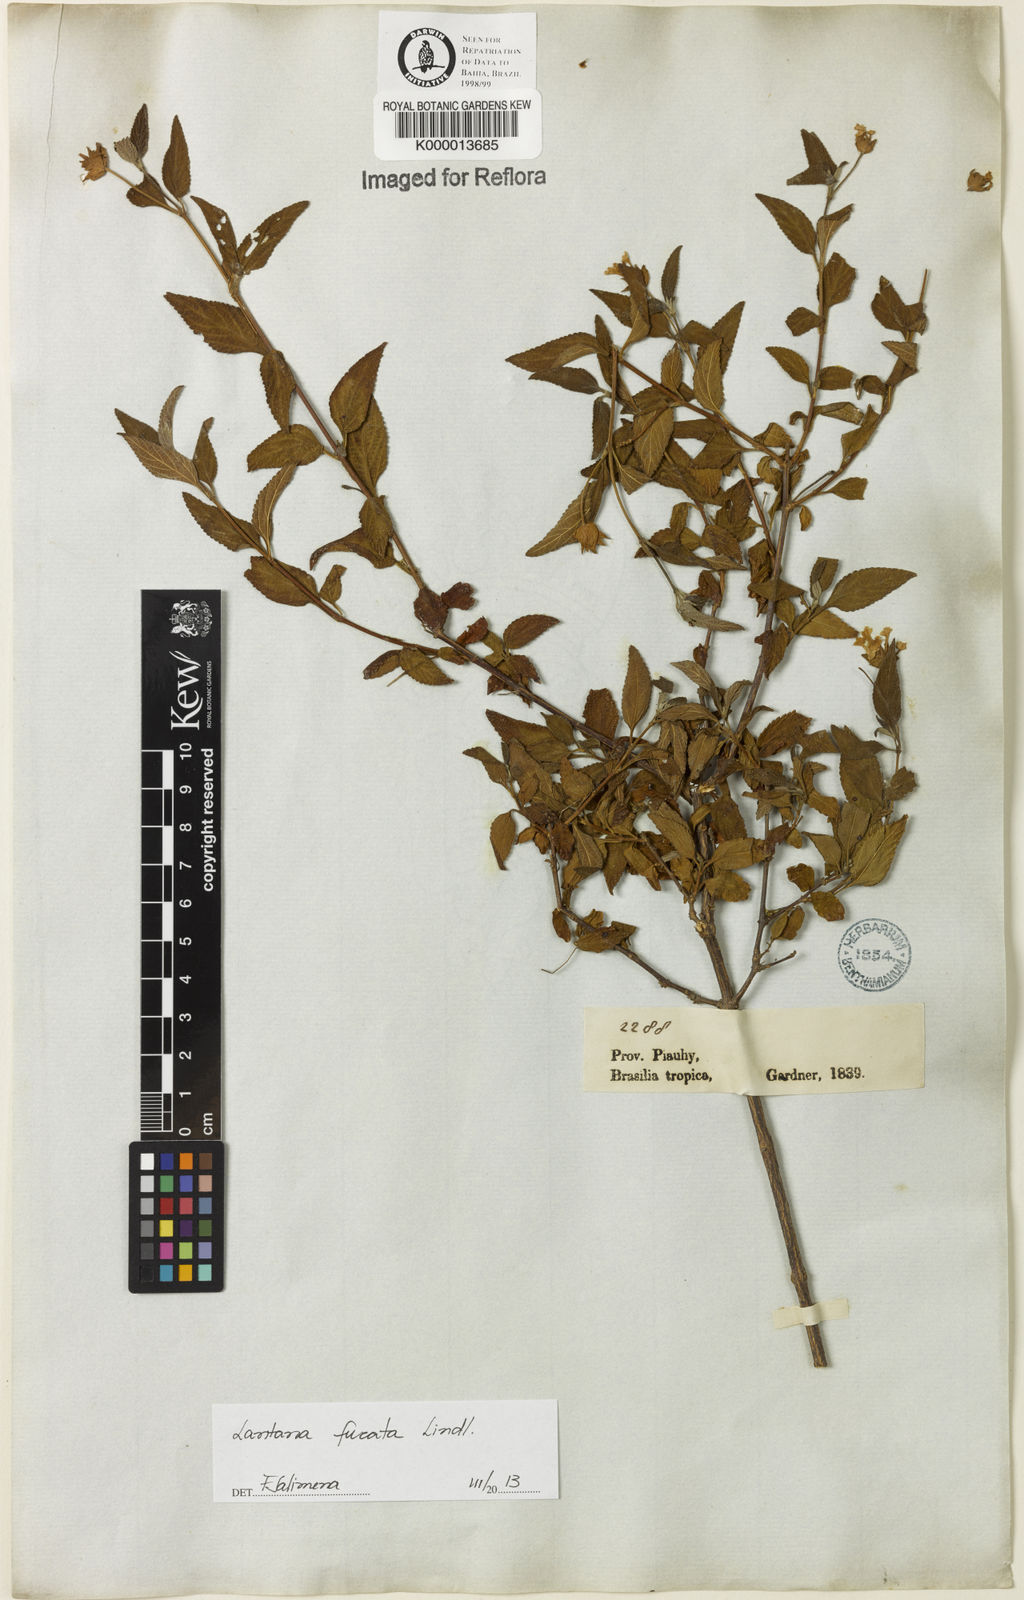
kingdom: Plantae
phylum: Tracheophyta
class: Magnoliopsida
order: Lamiales
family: Verbenaceae
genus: Lippia
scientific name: Lippia
